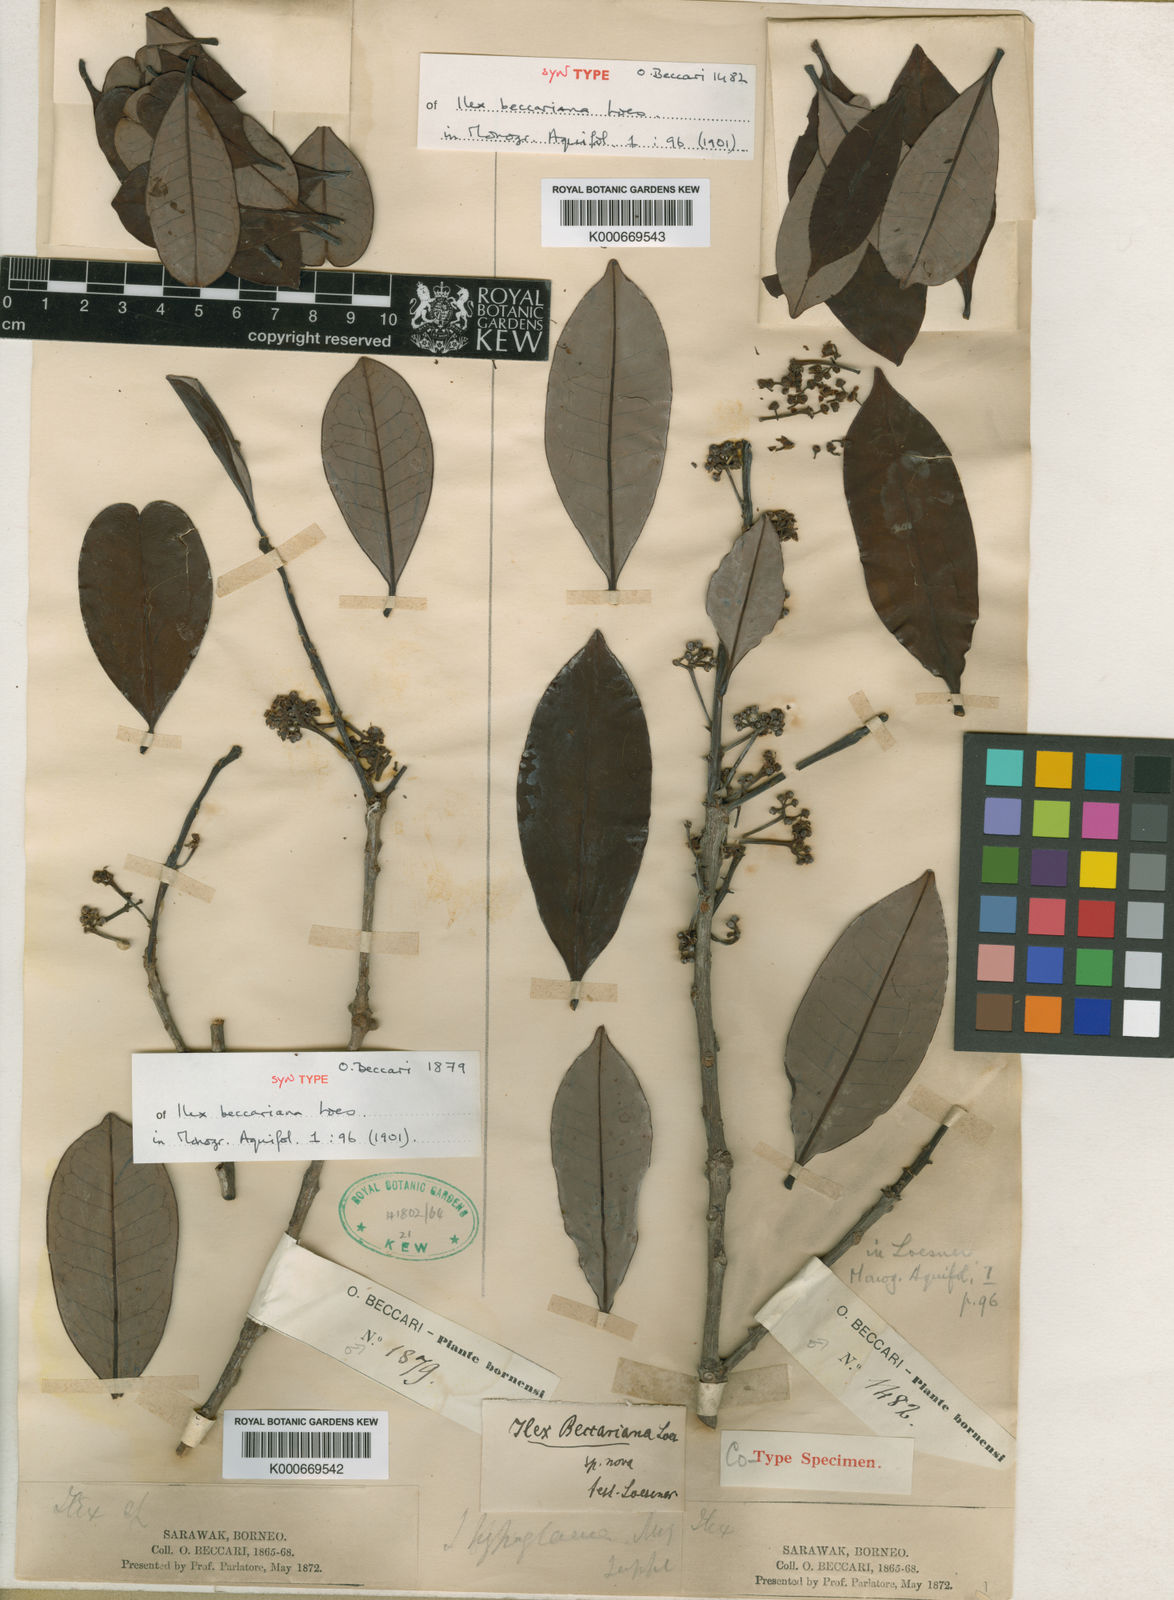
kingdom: Plantae
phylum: Tracheophyta
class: Magnoliopsida
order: Aquifoliales
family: Aquifoliaceae
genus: Ilex
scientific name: Ilex hypoglauca
